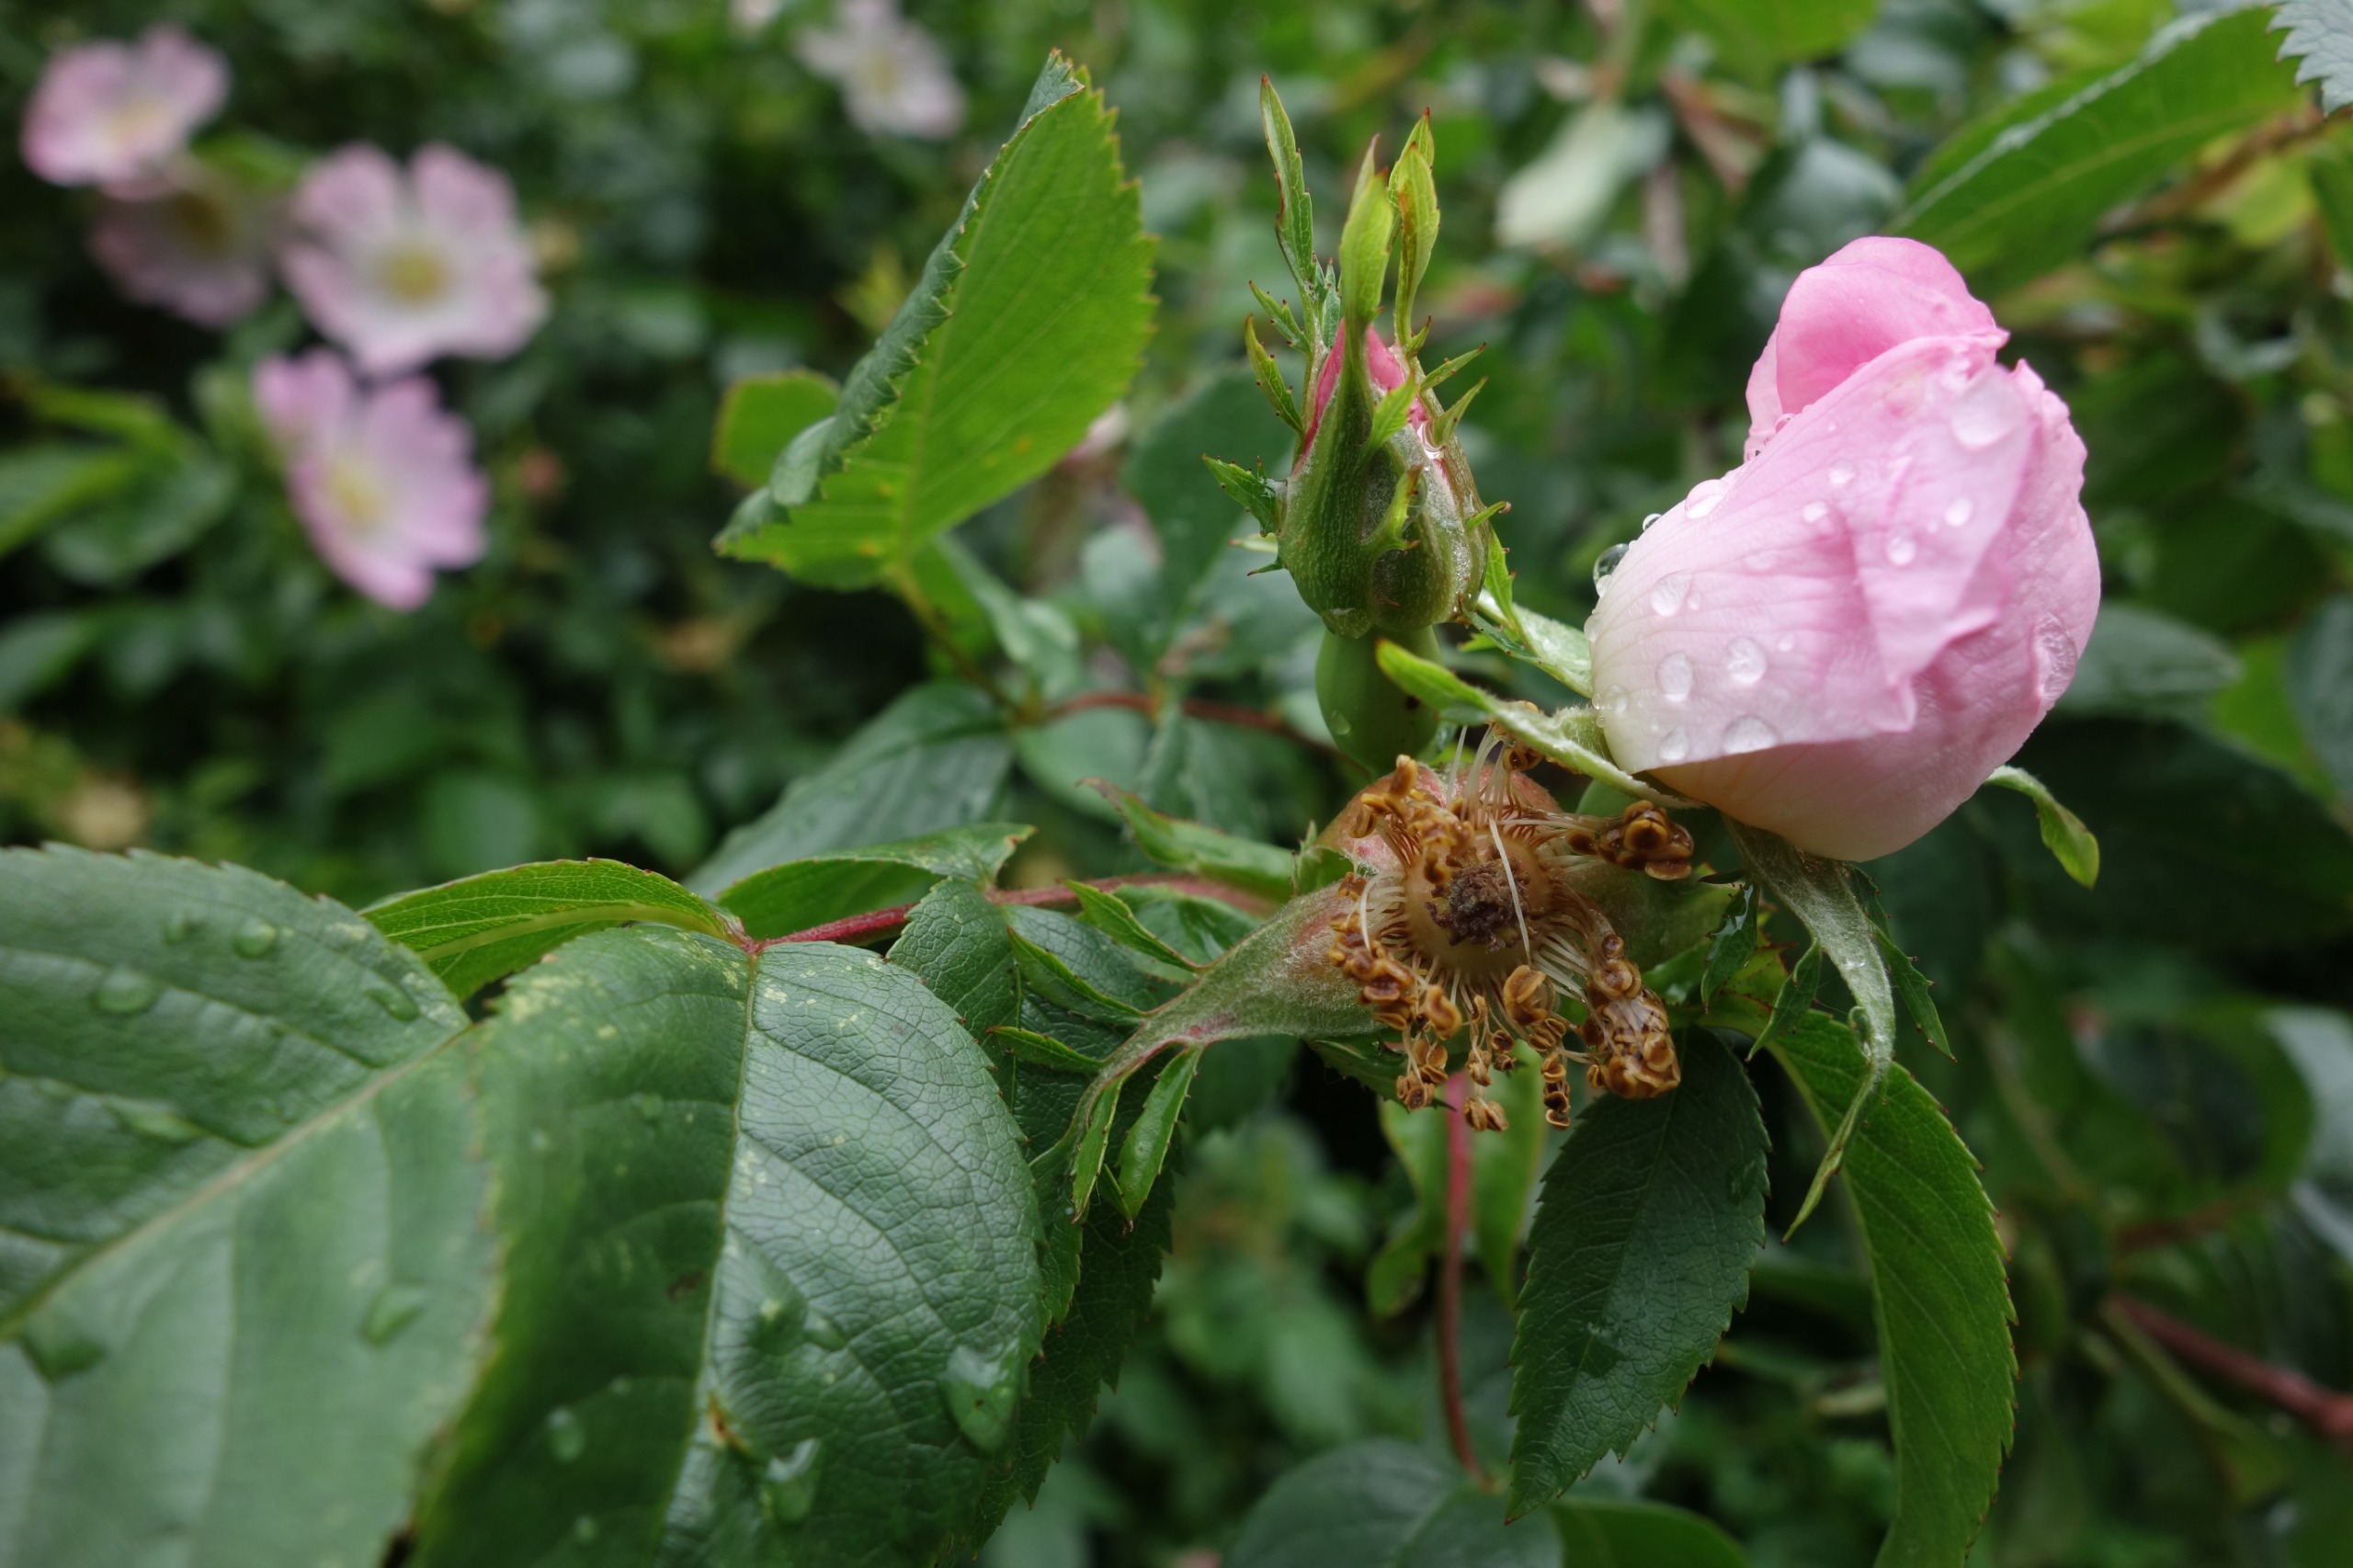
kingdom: Plantae
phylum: Tracheophyta
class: Magnoliopsida
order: Rosales
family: Rosaceae
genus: Rosa
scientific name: Rosa canina
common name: Glat hunde-rose
